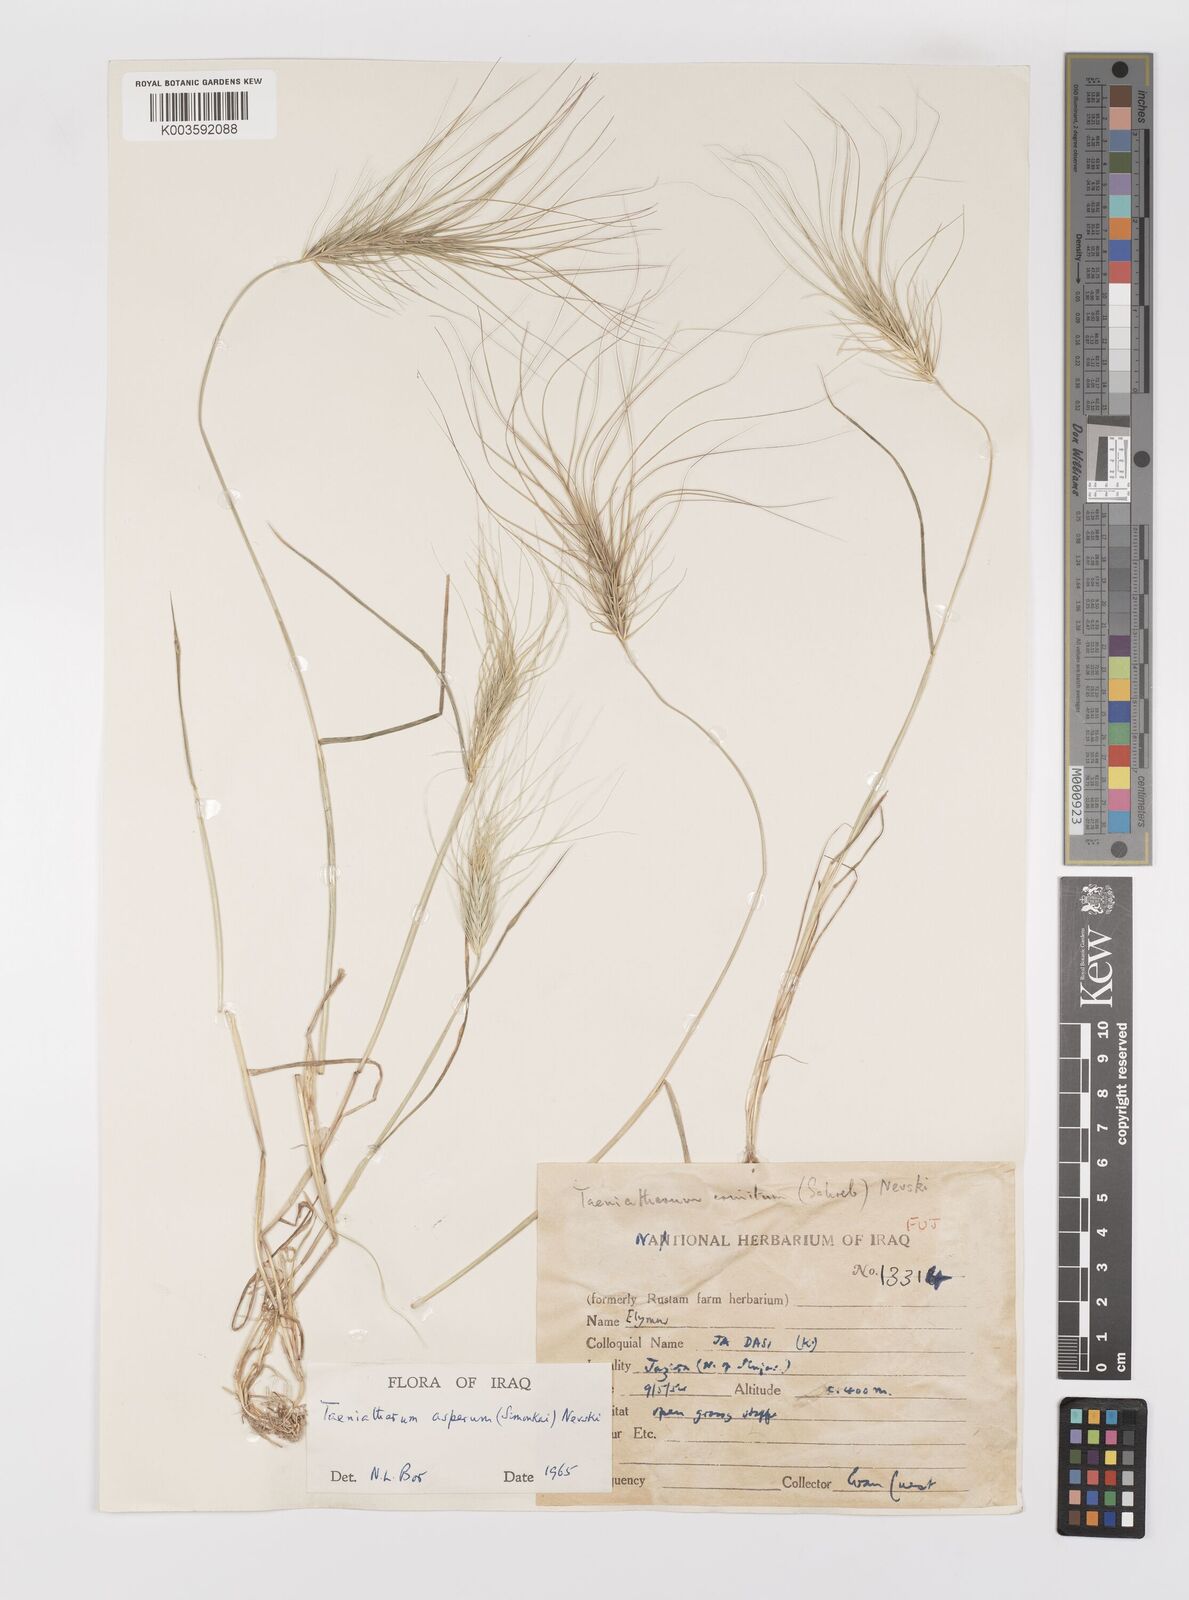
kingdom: Plantae
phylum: Tracheophyta
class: Liliopsida
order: Poales
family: Poaceae
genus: Taeniatherum
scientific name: Taeniatherum caput-medusae
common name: Medusahead
